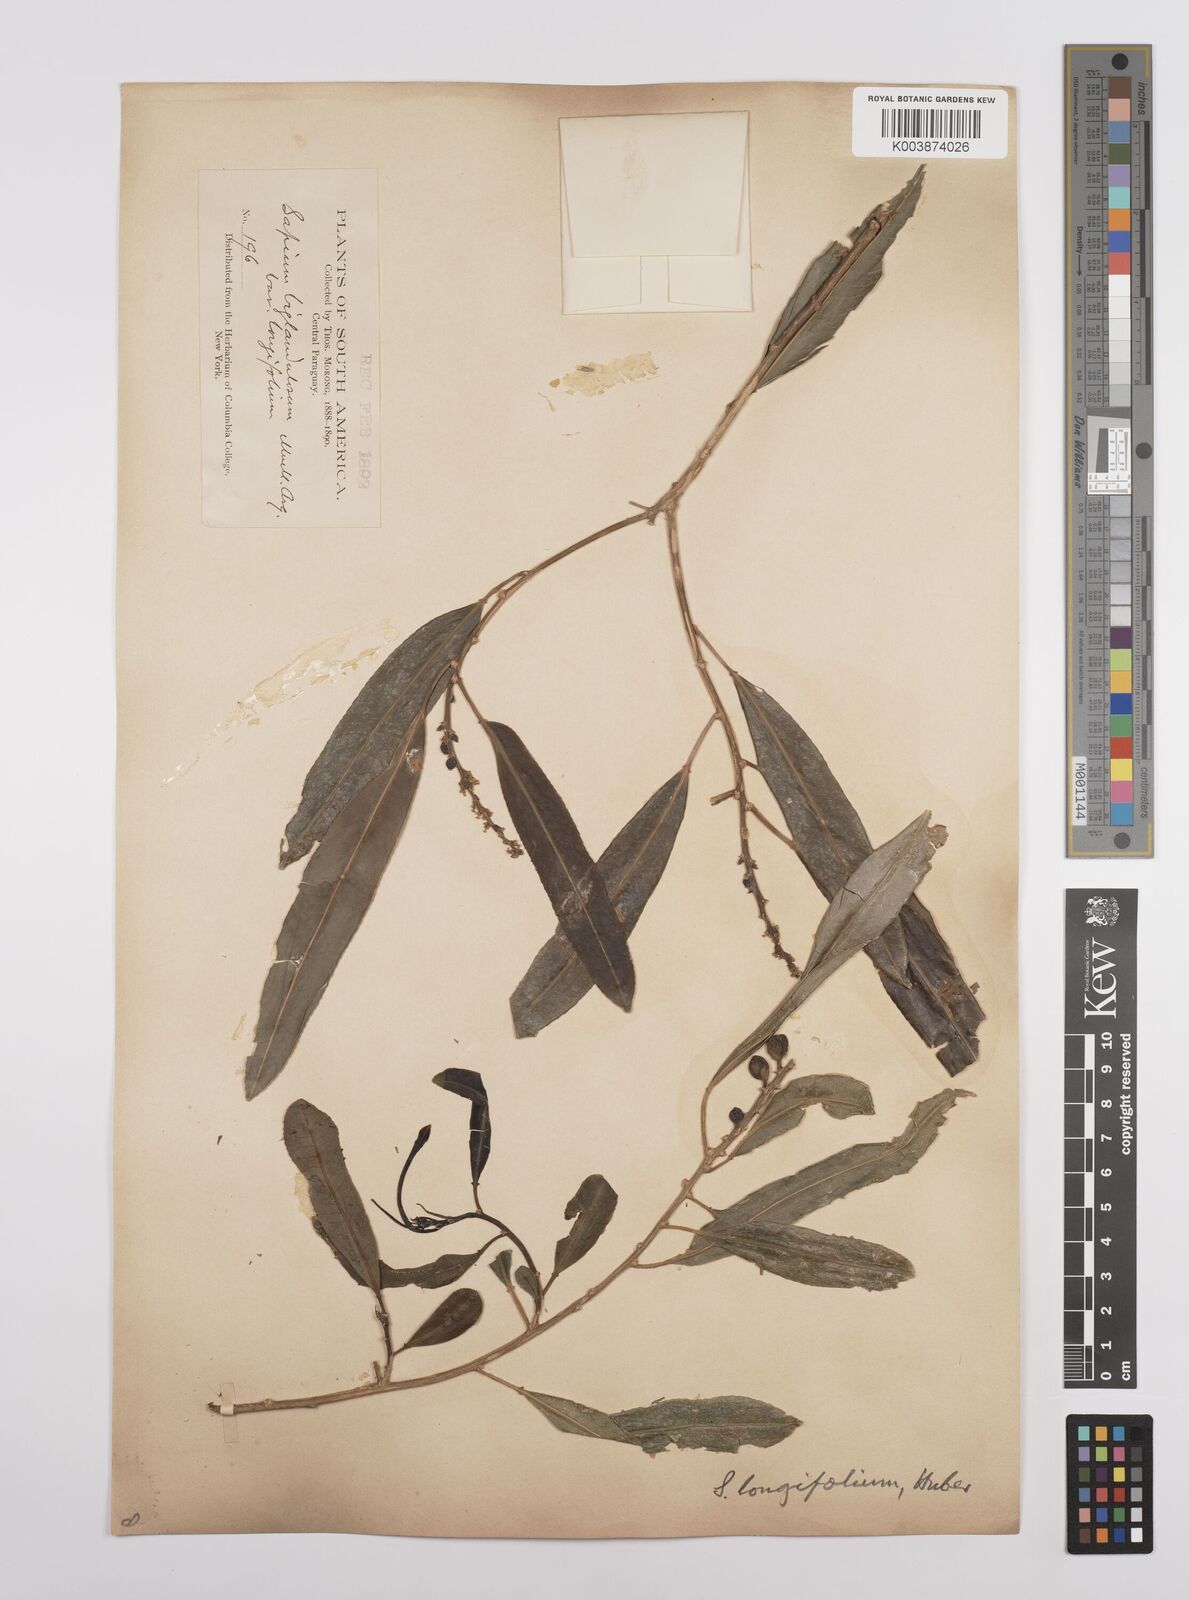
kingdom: Plantae
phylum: Tracheophyta
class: Magnoliopsida
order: Malpighiales
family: Euphorbiaceae
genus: Sapium
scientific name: Sapium haematospermum
